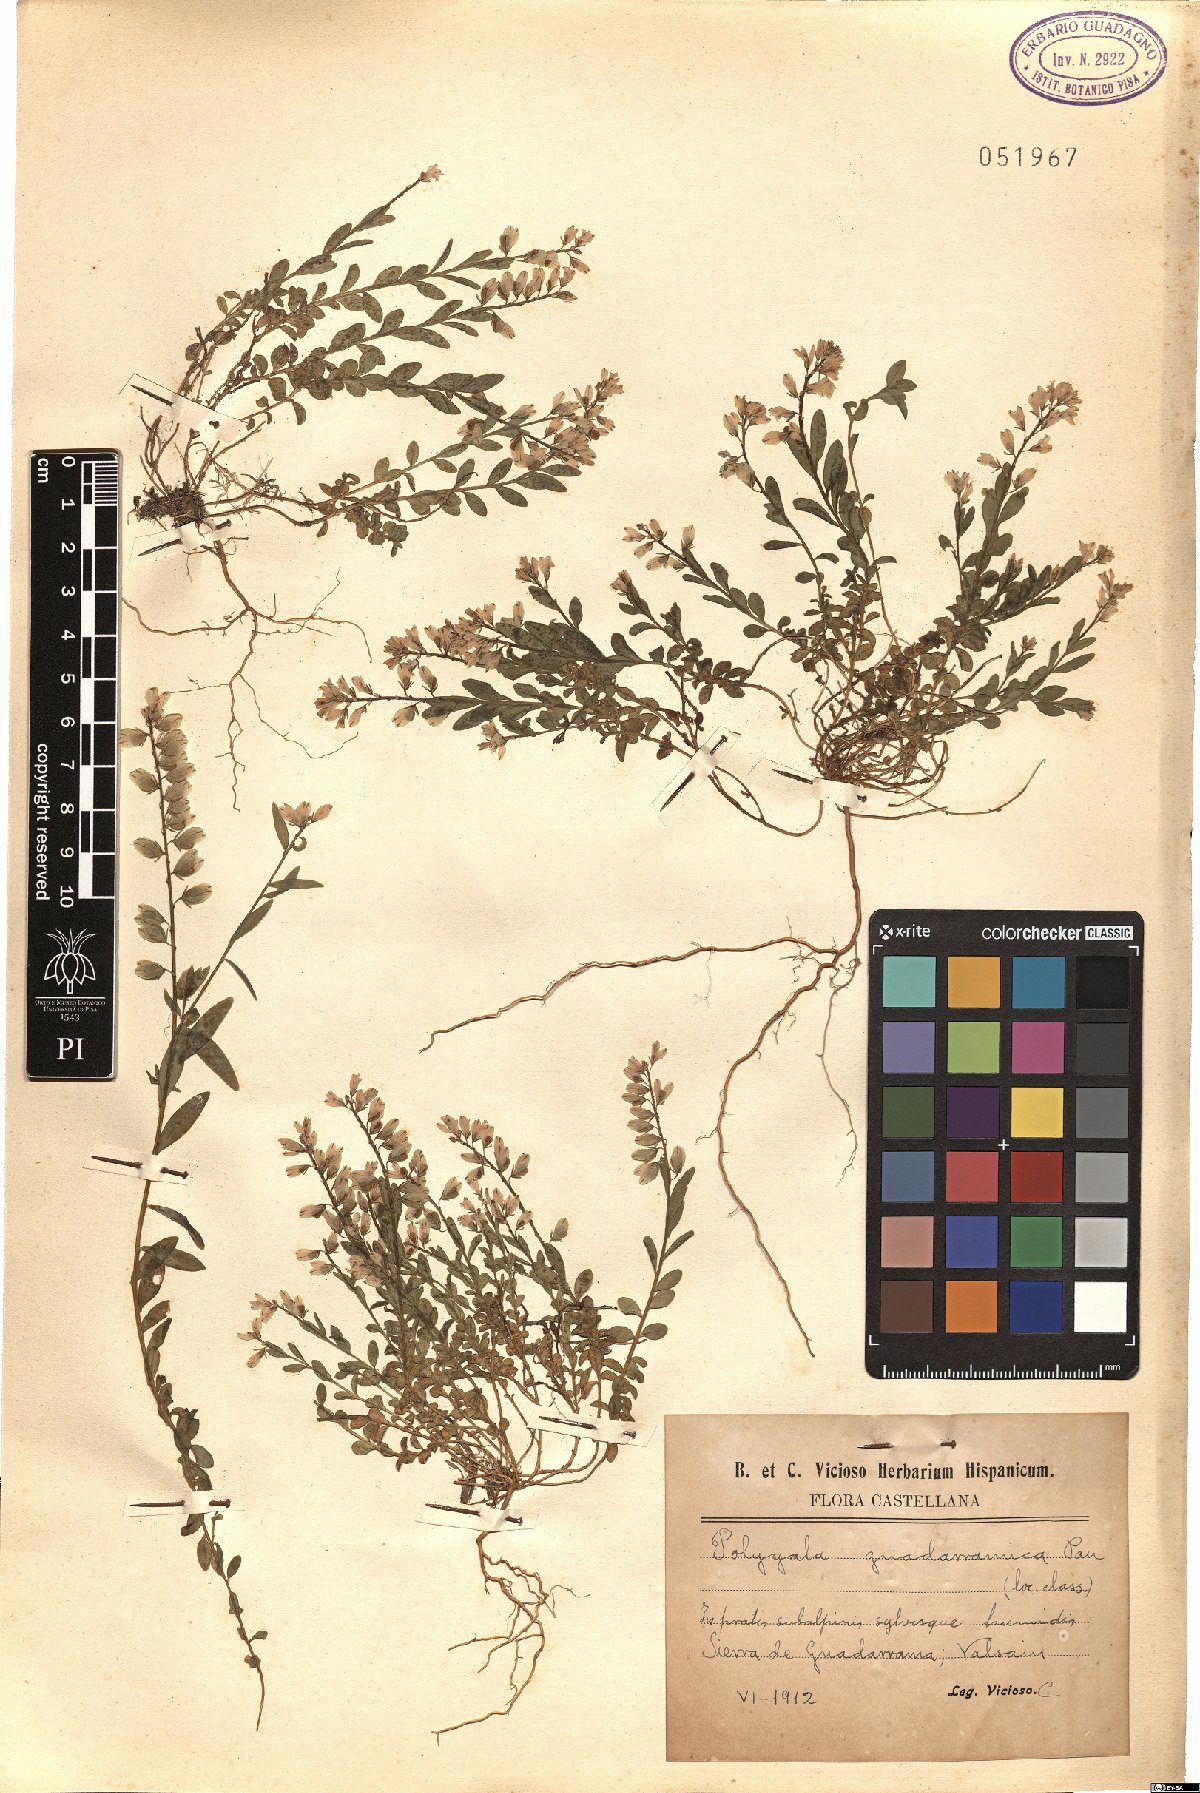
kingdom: Plantae
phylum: Tracheophyta
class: Magnoliopsida
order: Fabales
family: Polygalaceae
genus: Polygala
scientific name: Polygala
